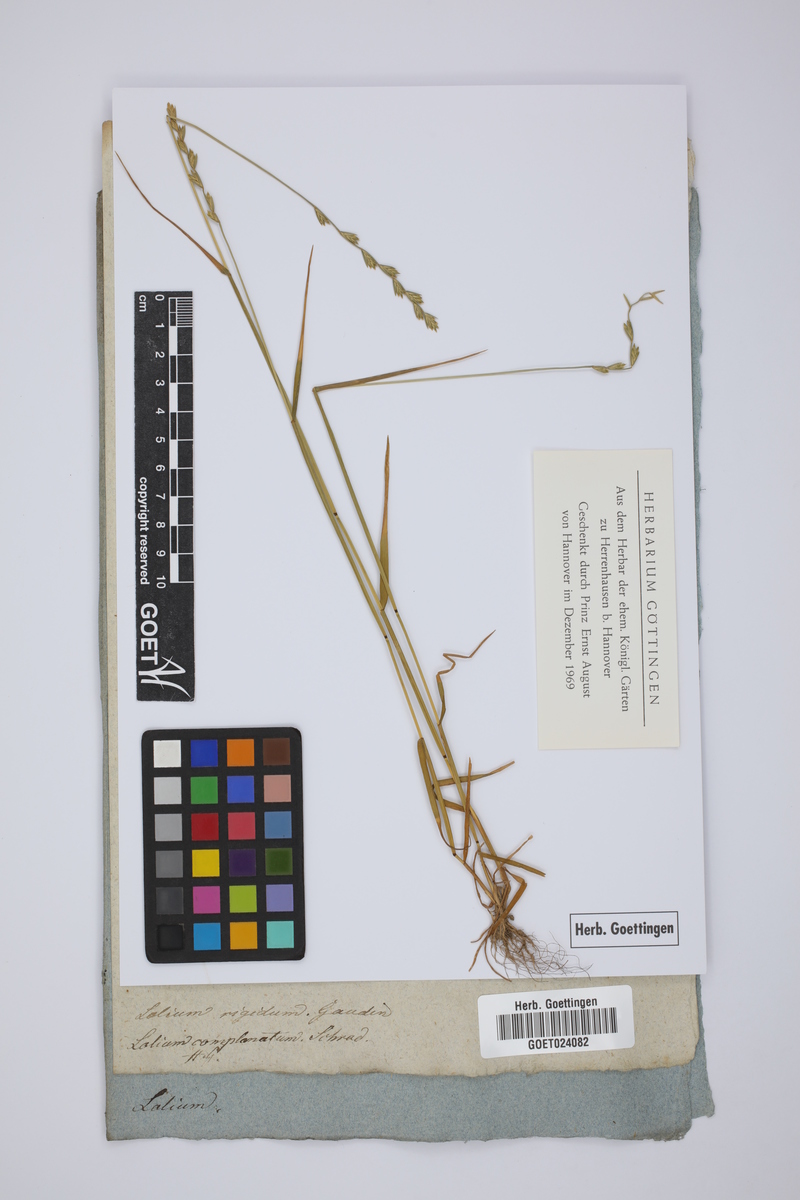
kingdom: Plantae
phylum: Tracheophyta
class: Liliopsida
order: Poales
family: Poaceae
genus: Lolium
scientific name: Lolium rigidum
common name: Wimmera ryegrass
